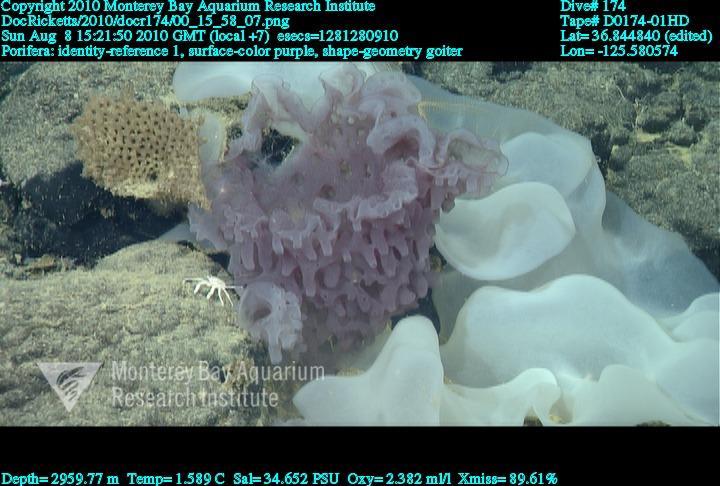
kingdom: Animalia
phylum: Porifera
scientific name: Porifera
